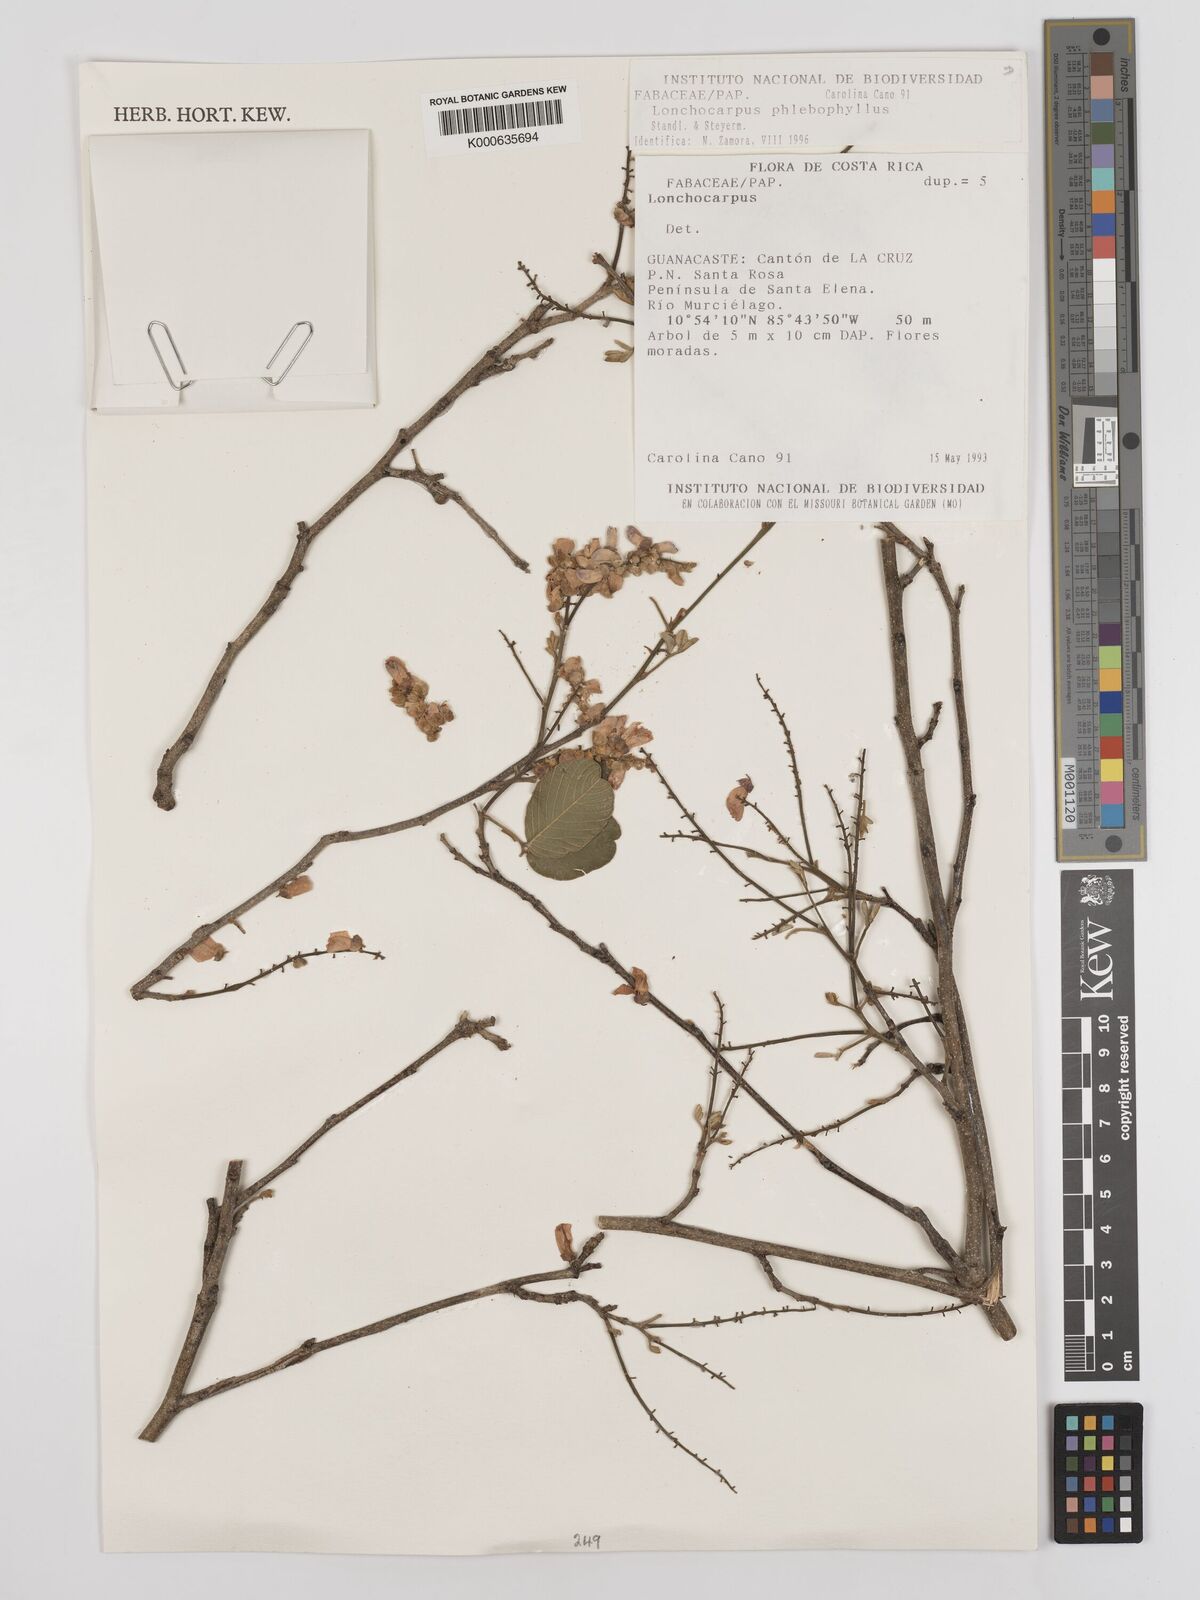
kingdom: Plantae
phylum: Tracheophyta
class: Magnoliopsida
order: Fabales
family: Fabaceae
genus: Lonchocarpus
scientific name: Lonchocarpus phlebophyllus
